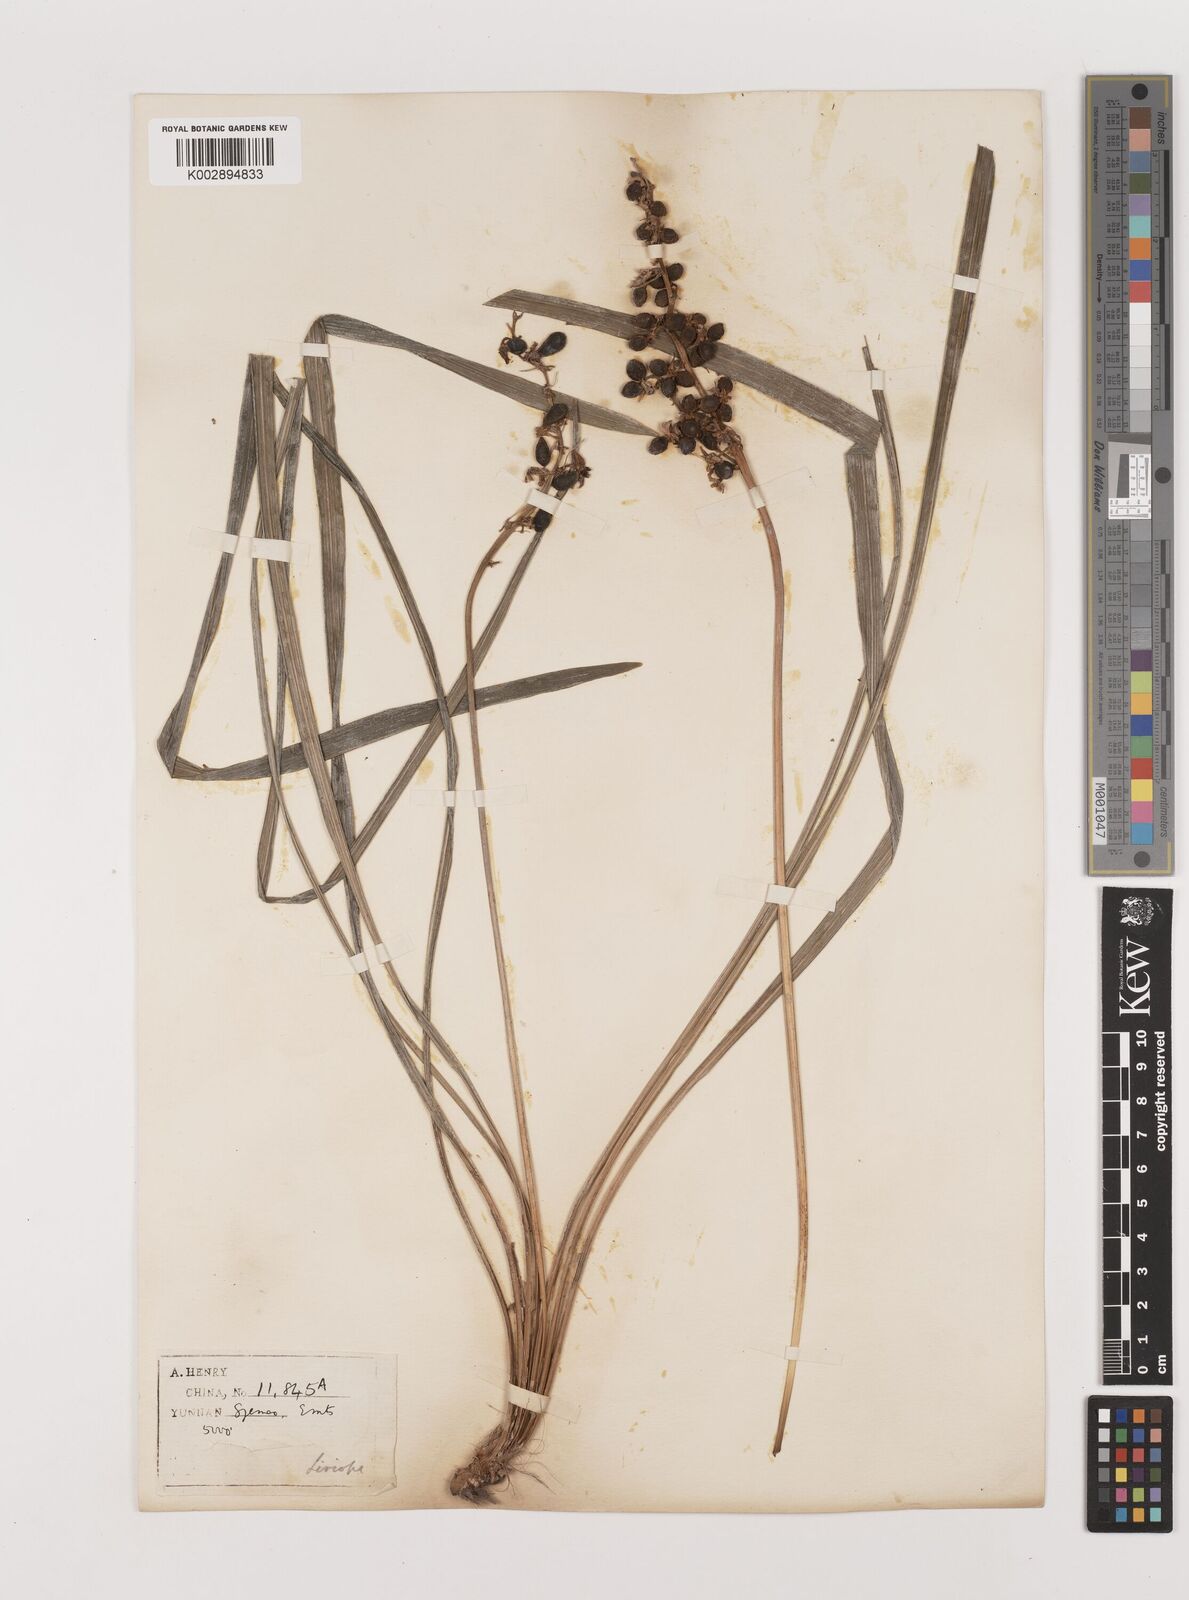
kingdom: Plantae
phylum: Tracheophyta
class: Liliopsida
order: Asparagales
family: Asparagaceae
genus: Ophiopogon
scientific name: Ophiopogon
